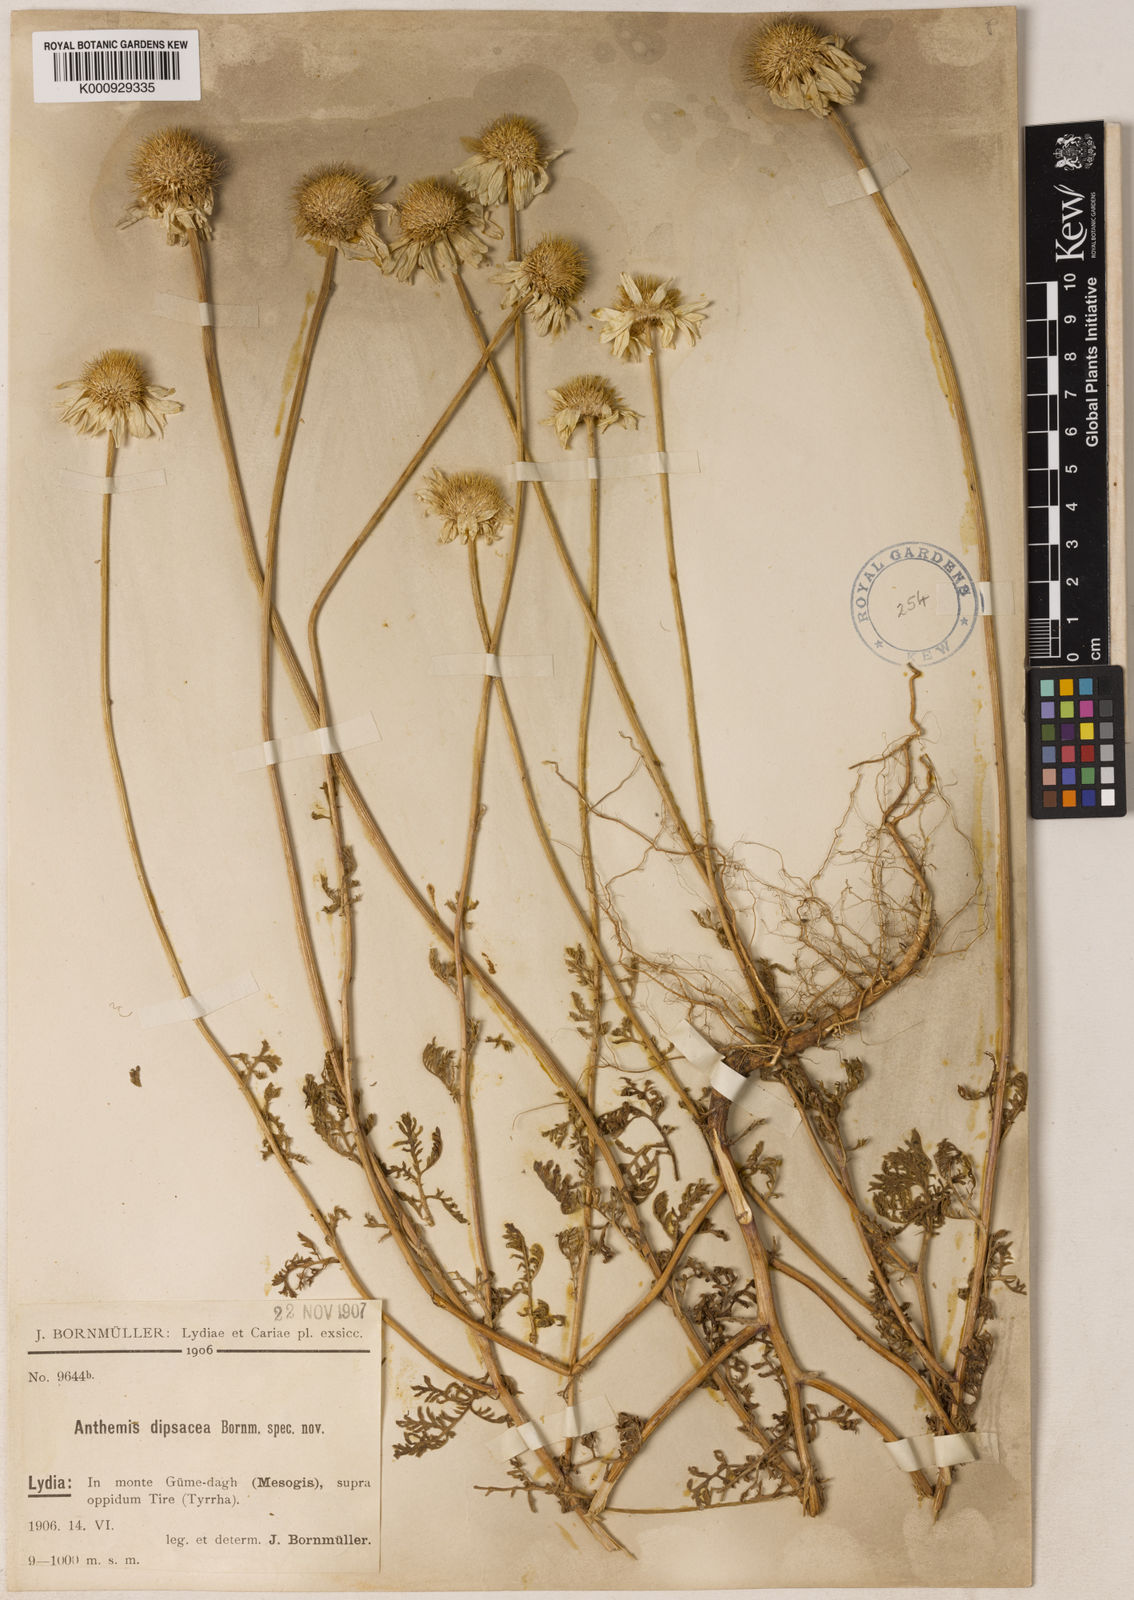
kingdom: Plantae
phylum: Tracheophyta
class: Magnoliopsida
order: Asterales
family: Asteraceae
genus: Cota
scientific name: Cota dipsacea
